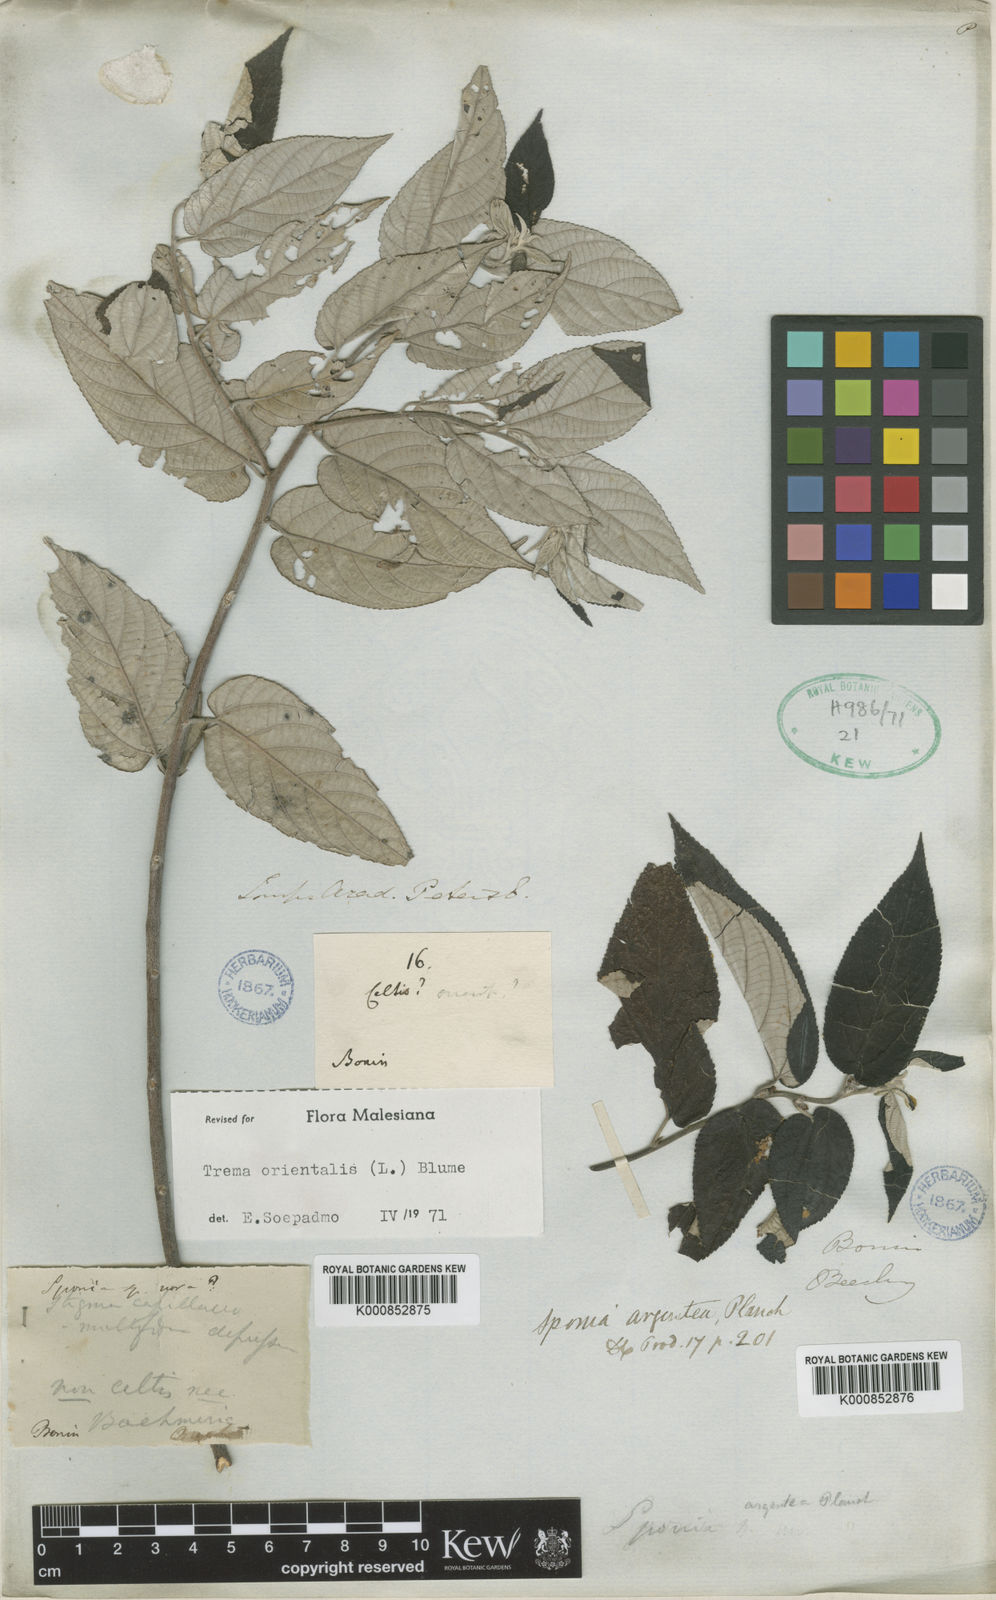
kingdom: Plantae
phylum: Tracheophyta
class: Magnoliopsida
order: Rosales
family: Cannabaceae
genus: Trema
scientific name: Trema
